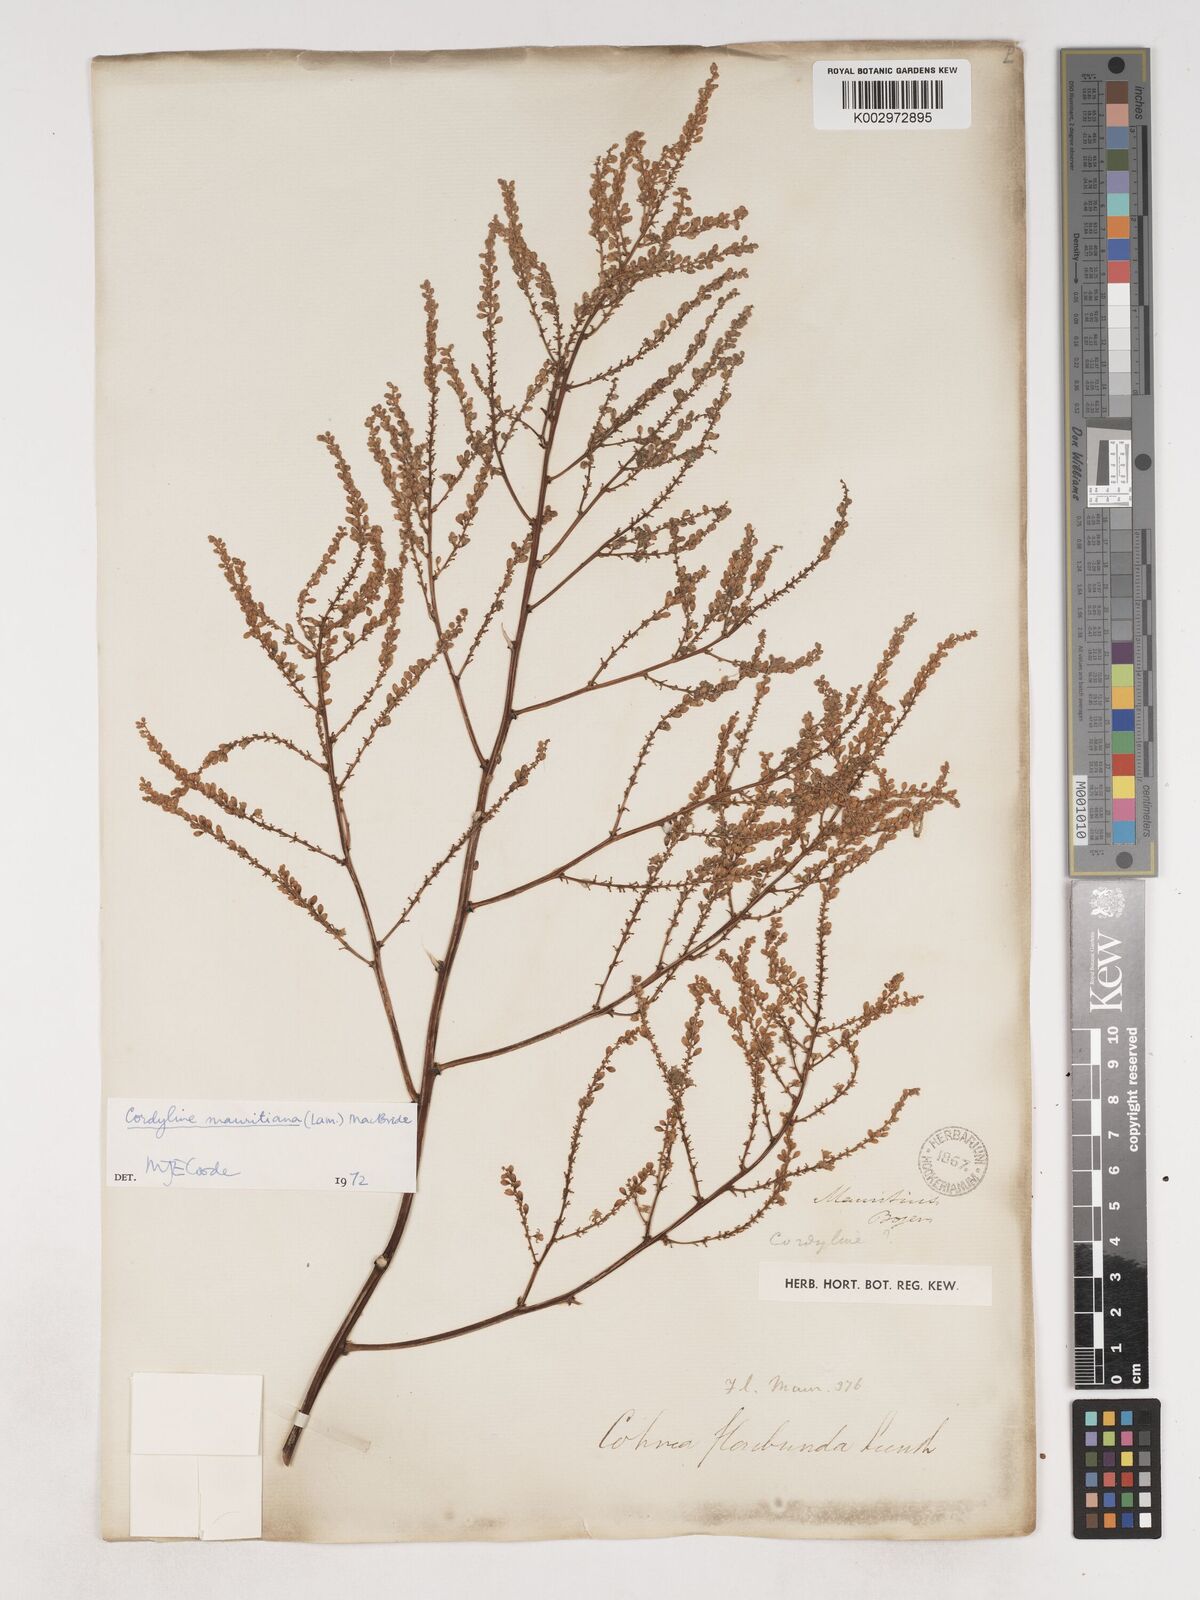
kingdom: Plantae
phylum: Tracheophyta
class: Liliopsida
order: Asparagales
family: Asparagaceae
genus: Cordyline
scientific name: Cordyline mauritiana
